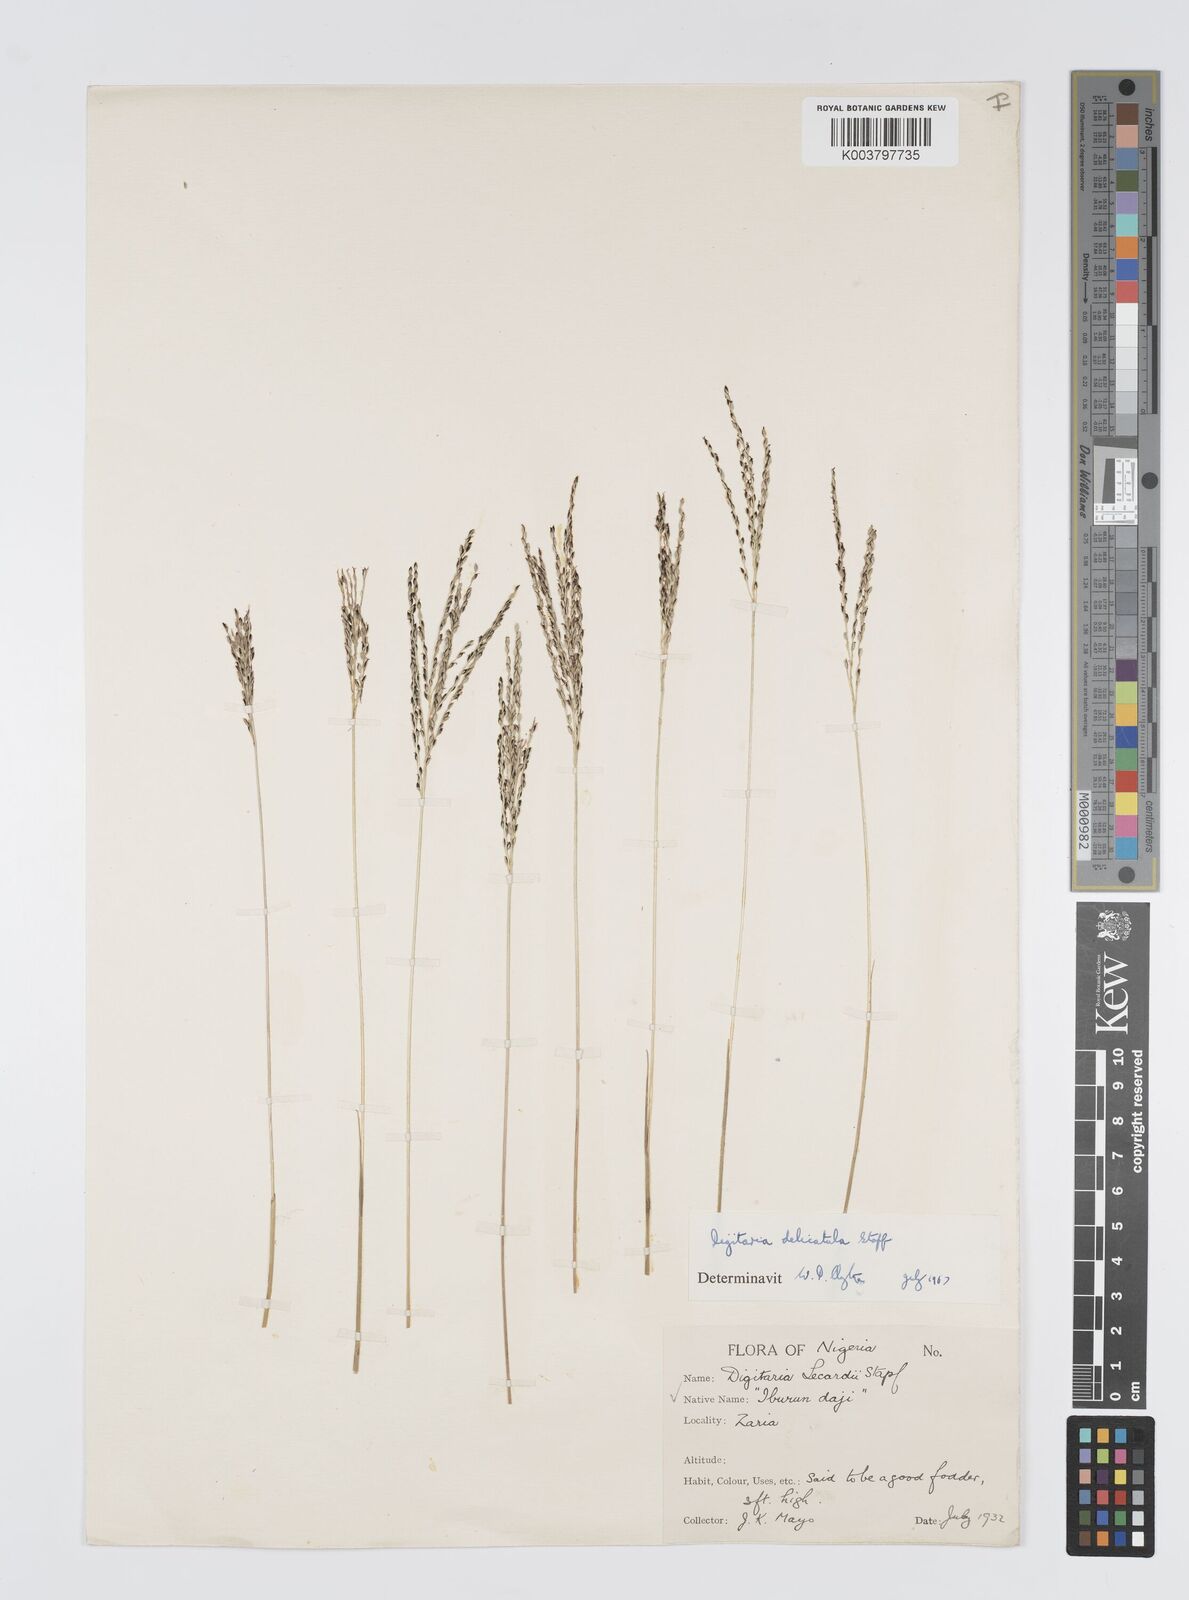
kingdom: Plantae
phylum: Tracheophyta
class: Liliopsida
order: Poales
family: Poaceae
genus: Digitaria
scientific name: Digitaria delicatula
